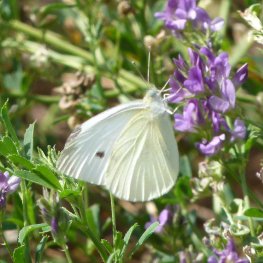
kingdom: Animalia
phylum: Arthropoda
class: Insecta
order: Lepidoptera
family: Pieridae
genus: Pieris
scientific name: Pieris rapae
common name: Cabbage White
